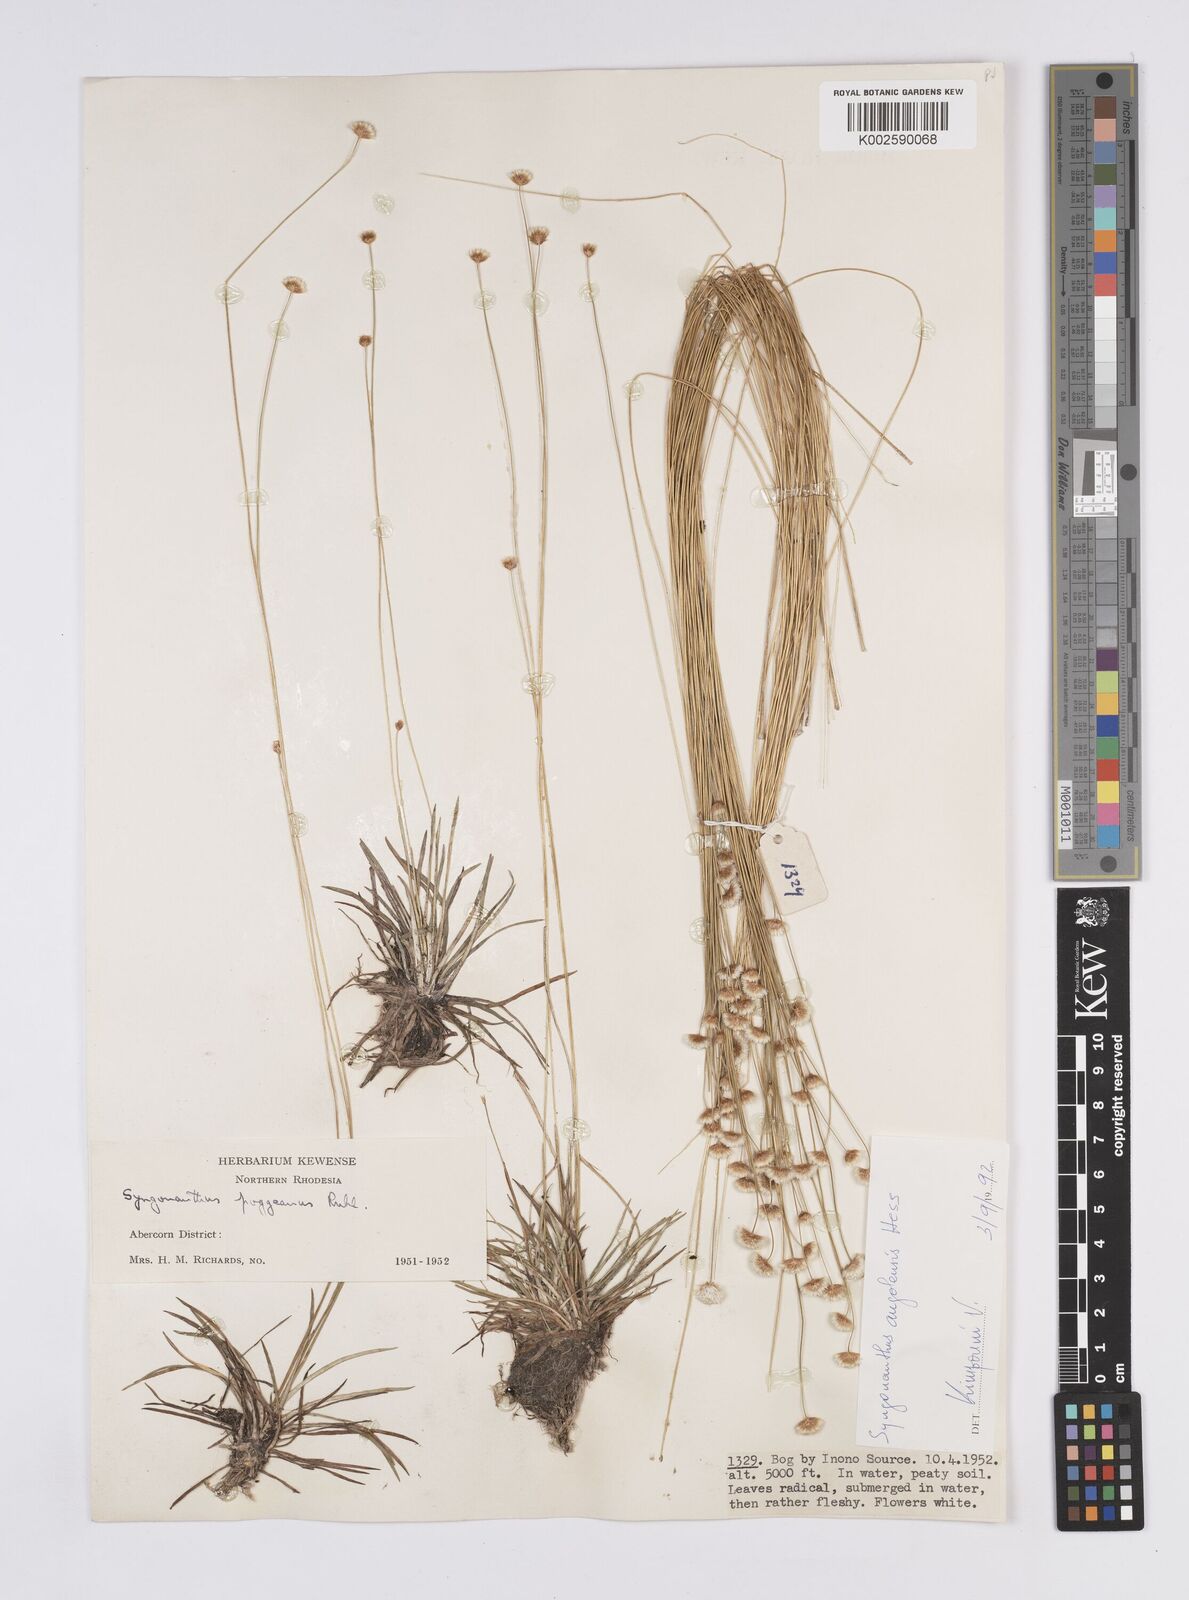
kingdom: Plantae
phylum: Tracheophyta
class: Liliopsida
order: Poales
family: Eriocaulaceae
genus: Syngonanthus
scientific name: Syngonanthus angolensis
